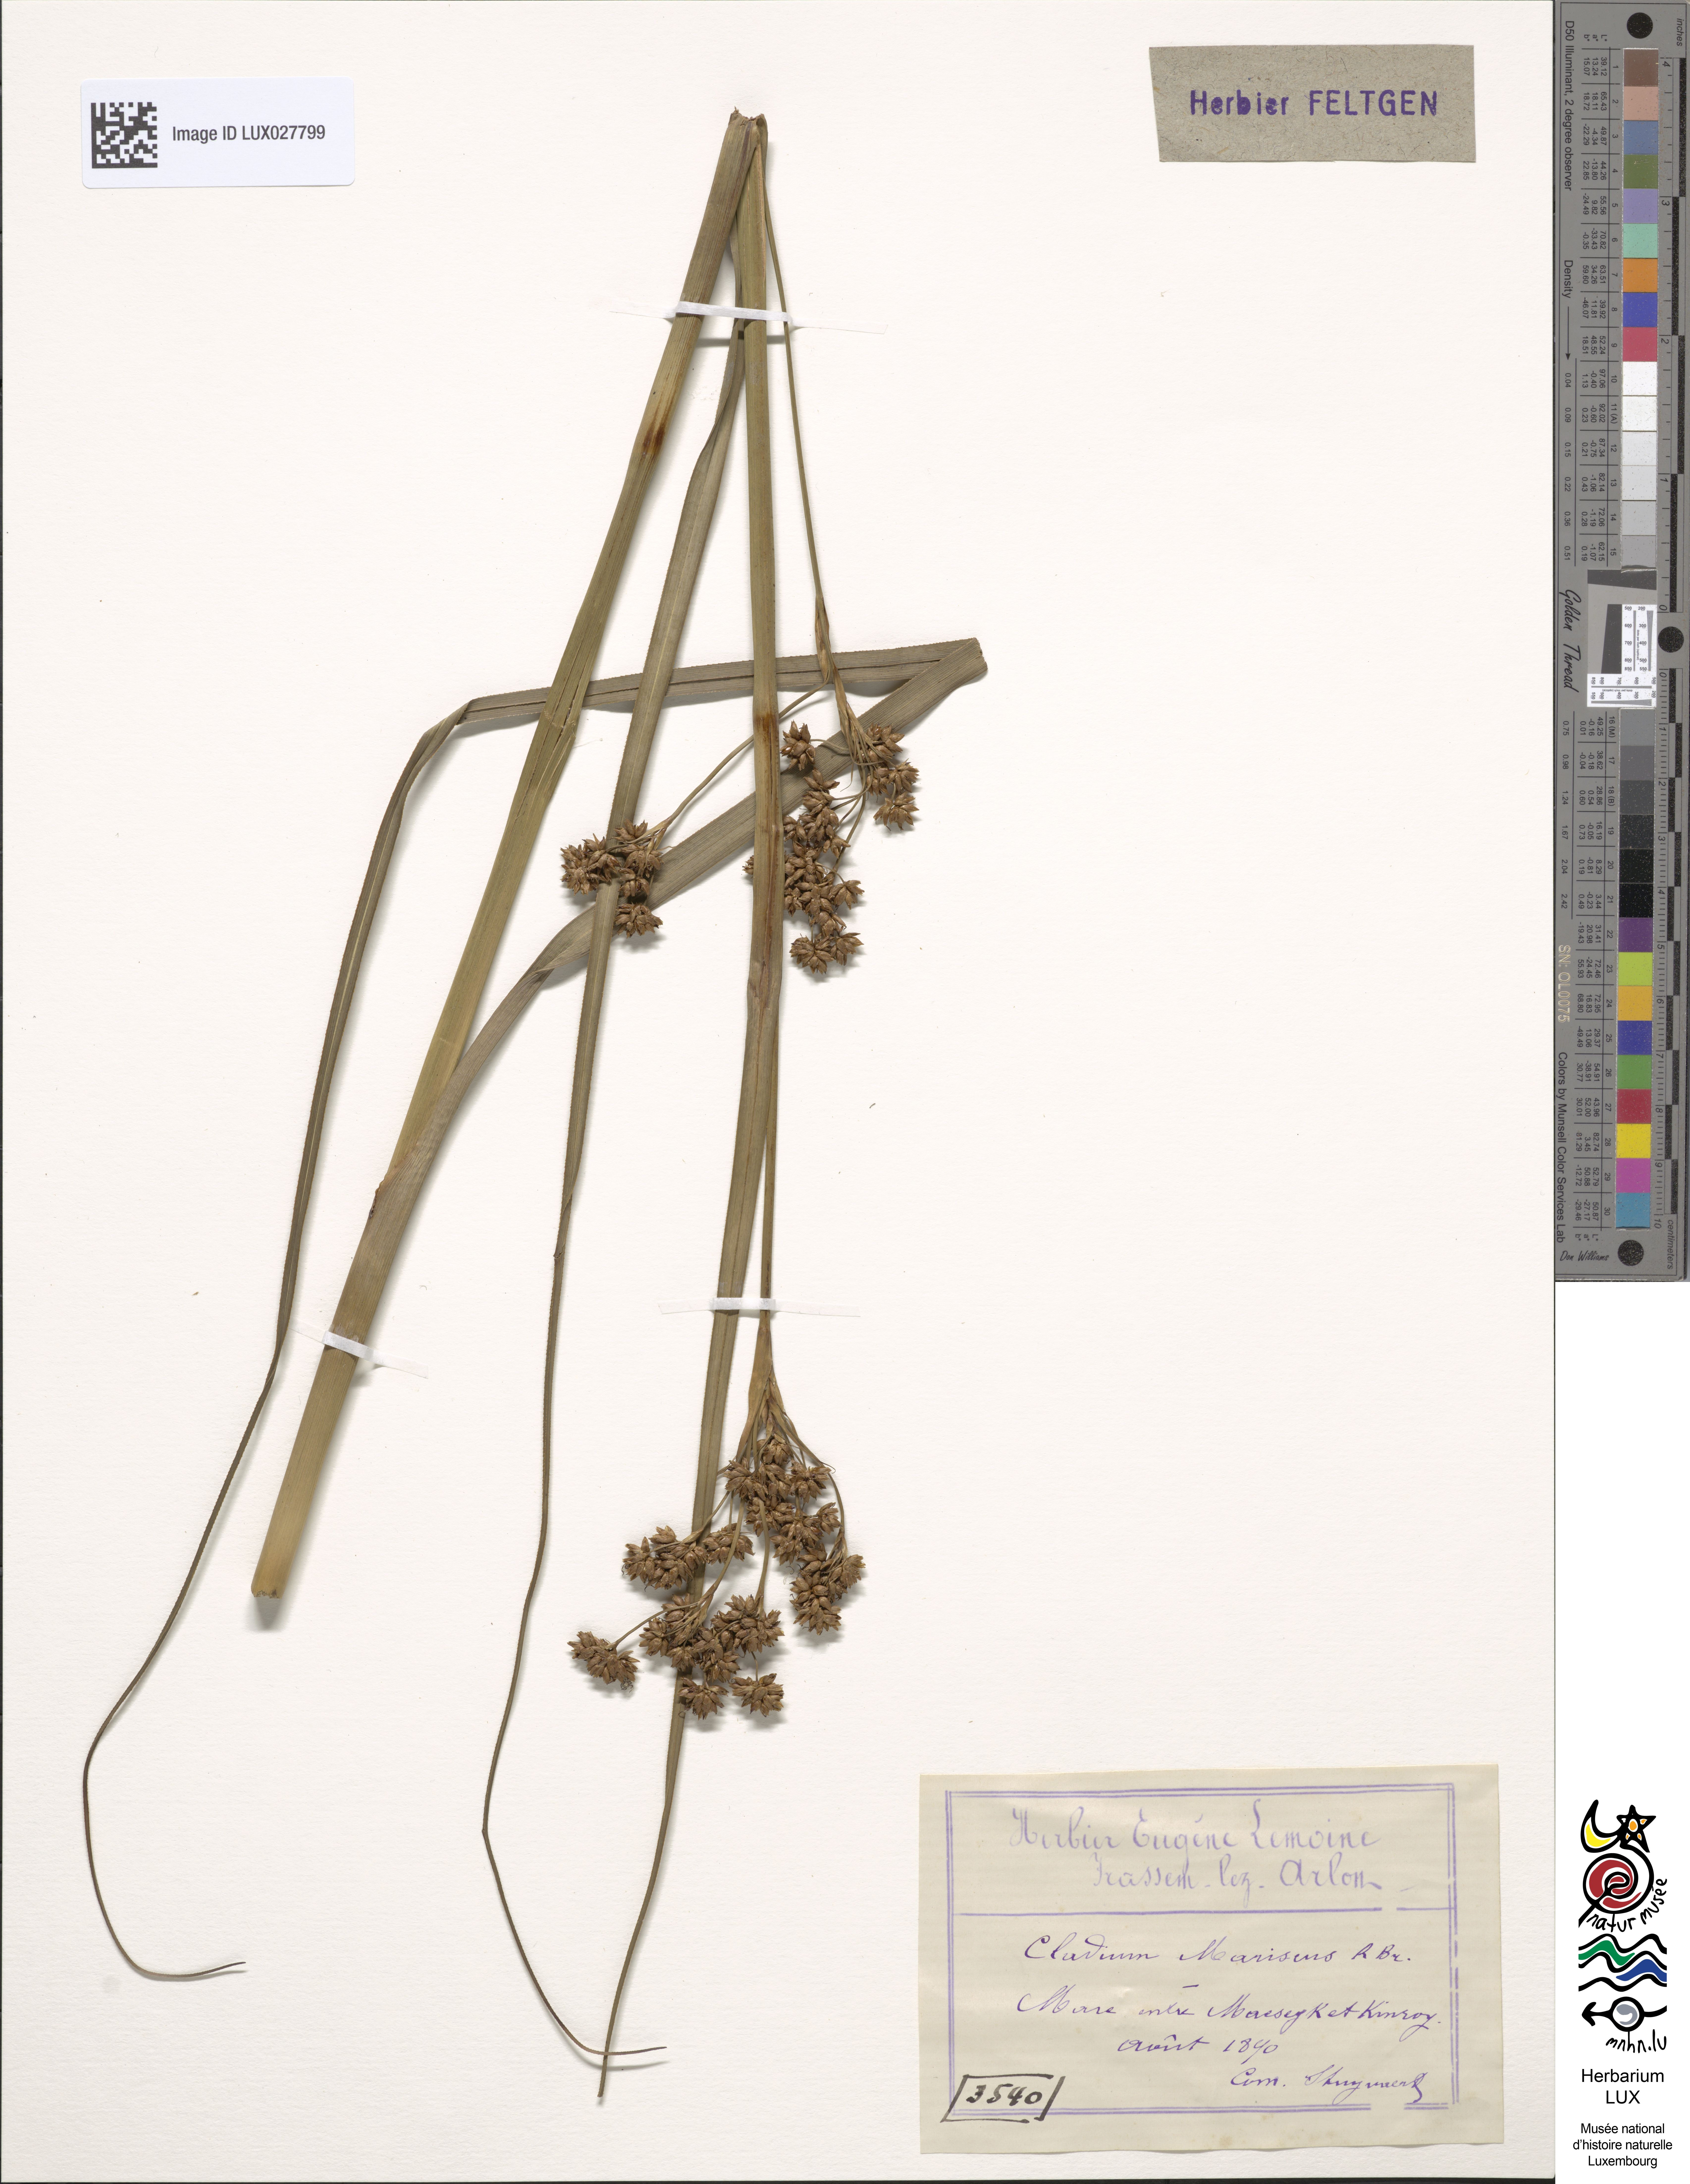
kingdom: Plantae
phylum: Tracheophyta
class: Liliopsida
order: Poales
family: Cyperaceae
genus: Cladium
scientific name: Cladium mariscus
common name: Great fen-sedge
